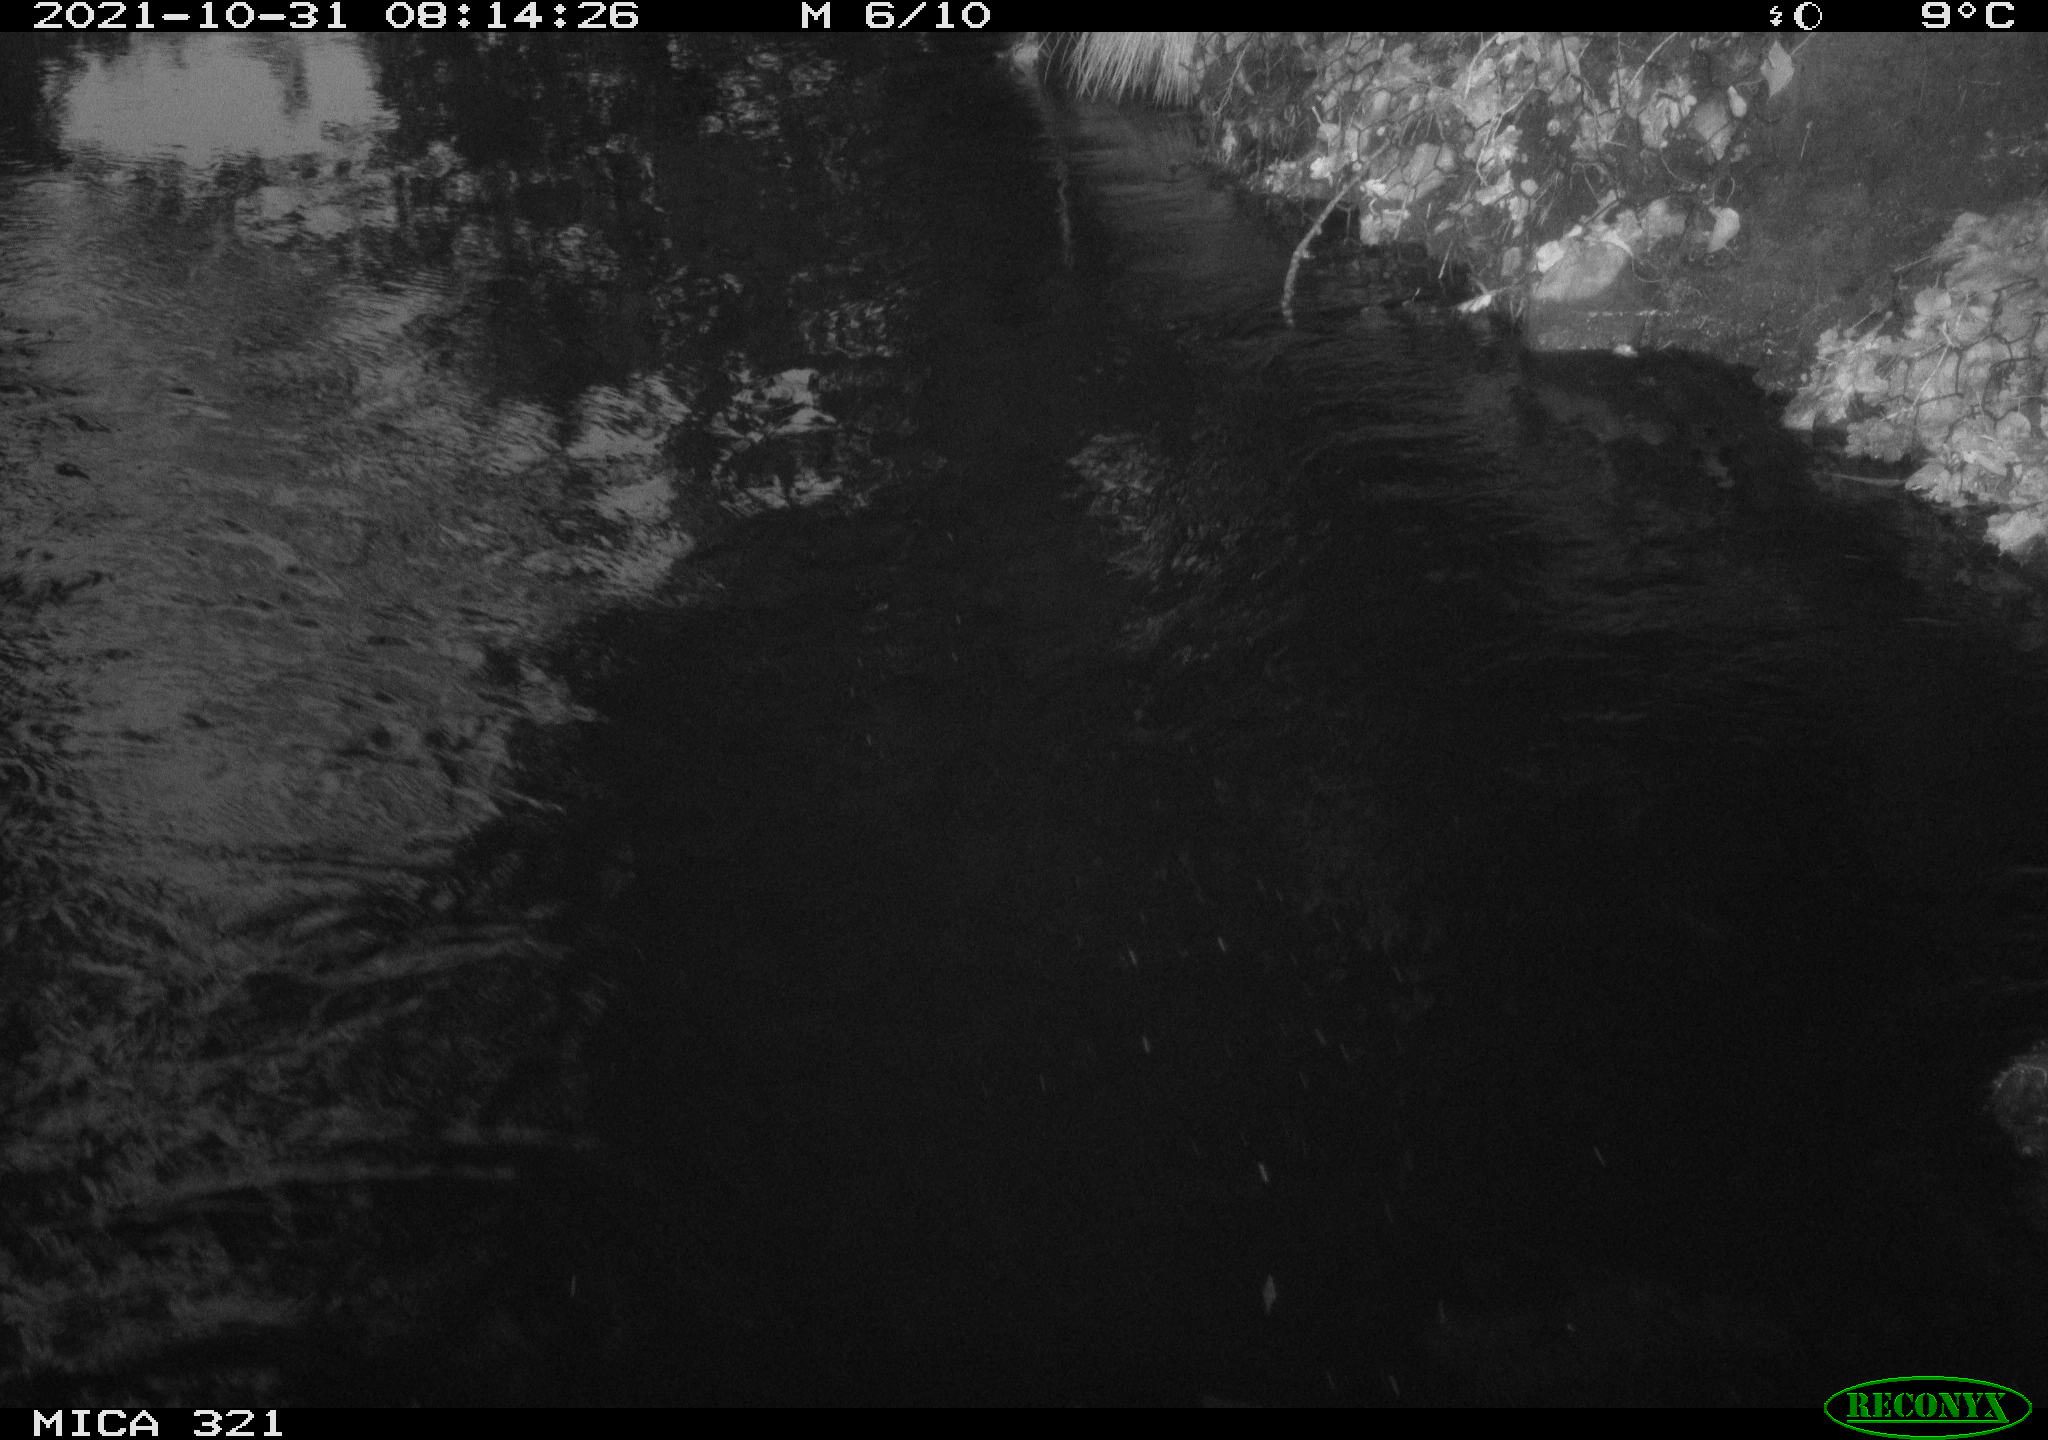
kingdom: Animalia
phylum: Chordata
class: Aves
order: Anseriformes
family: Anatidae
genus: Anas
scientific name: Anas platyrhynchos
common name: Mallard
